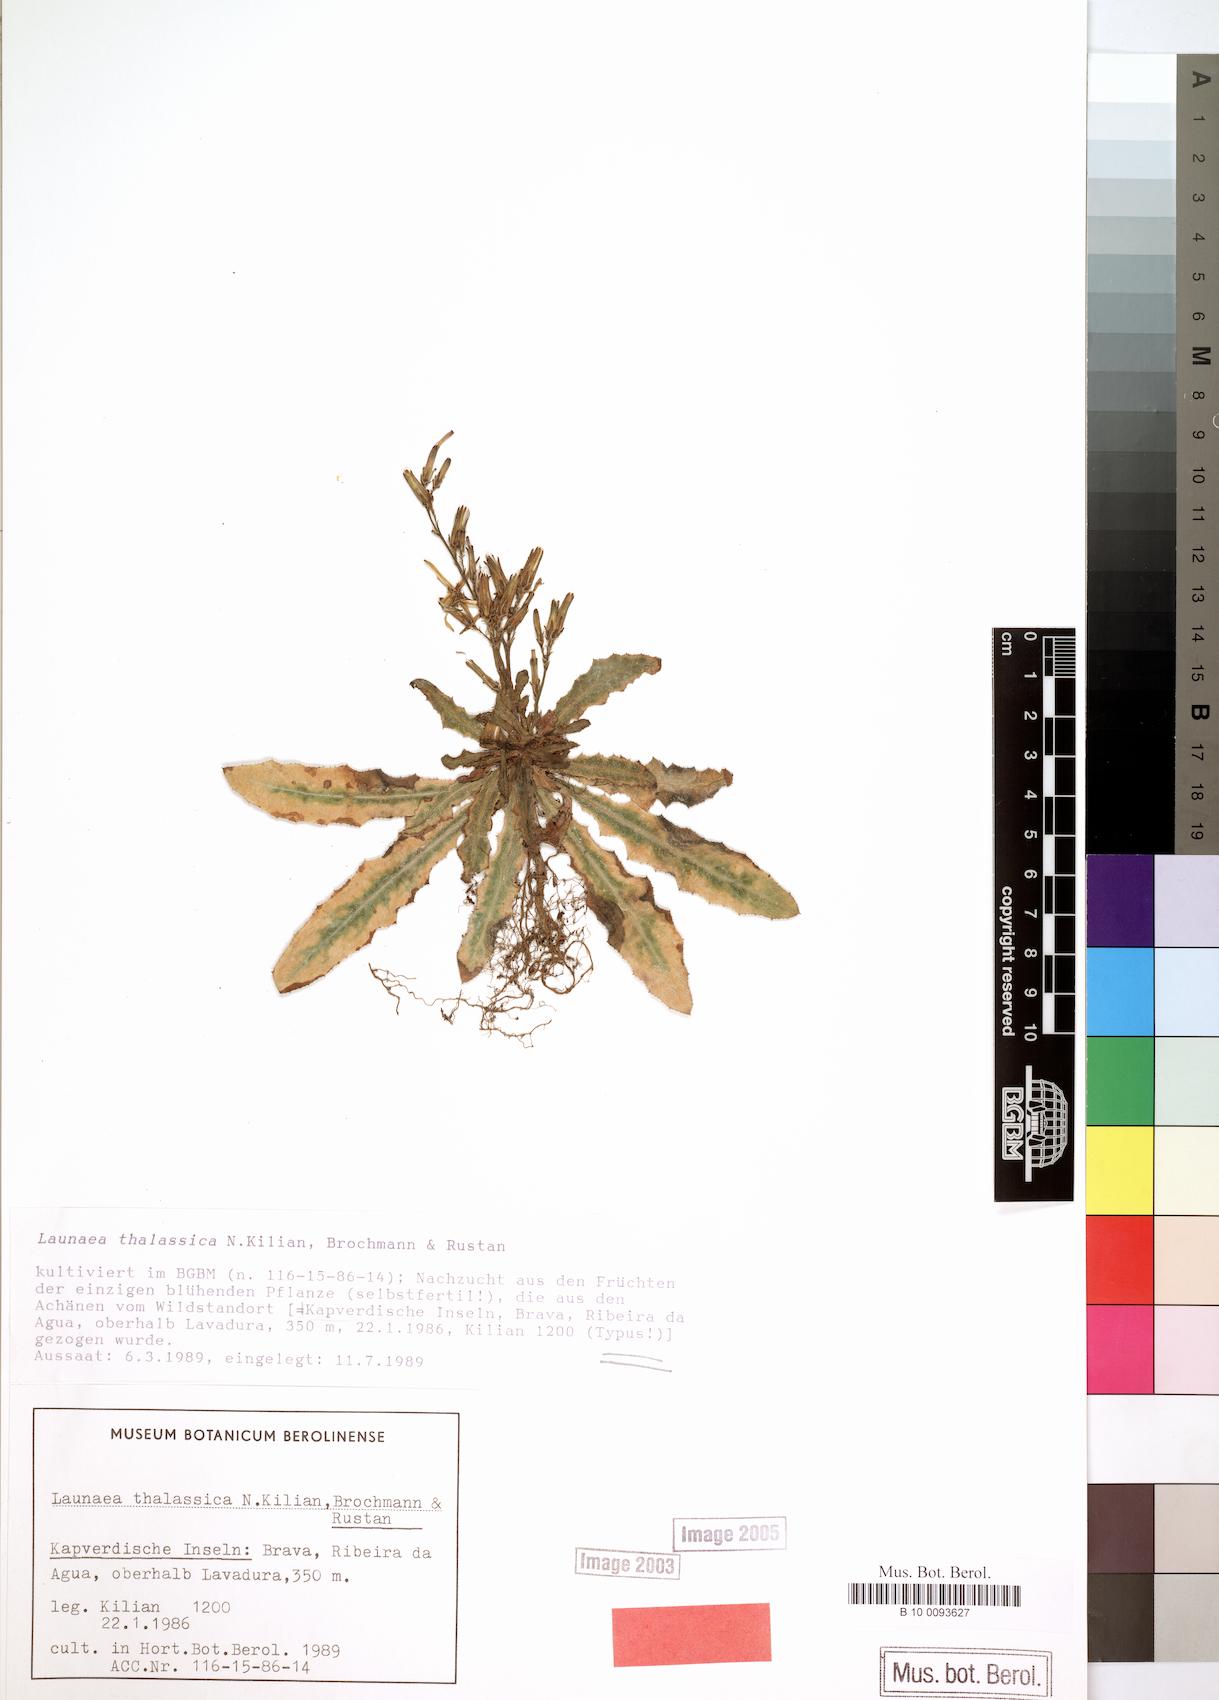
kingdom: Plantae
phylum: Tracheophyta
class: Magnoliopsida
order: Asterales
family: Asteraceae
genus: Launaea
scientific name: Launaea thalassica
